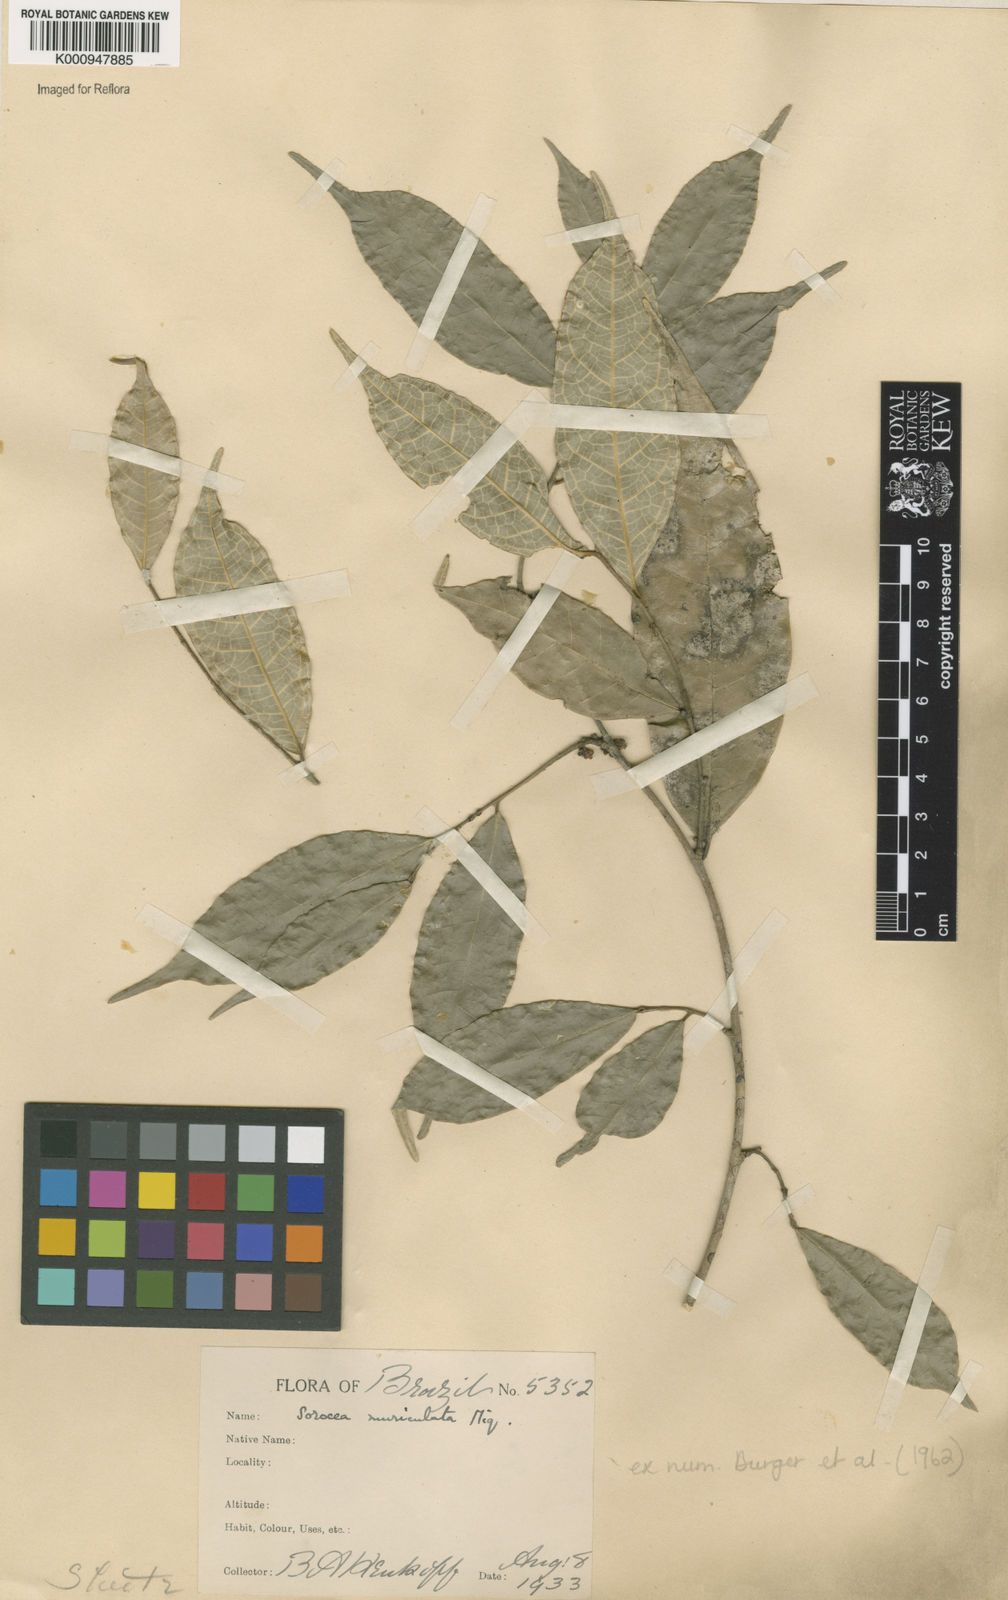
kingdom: Plantae
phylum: Tracheophyta
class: Magnoliopsida
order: Rosales
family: Moraceae
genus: Sorocea
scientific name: Sorocea muriculata
